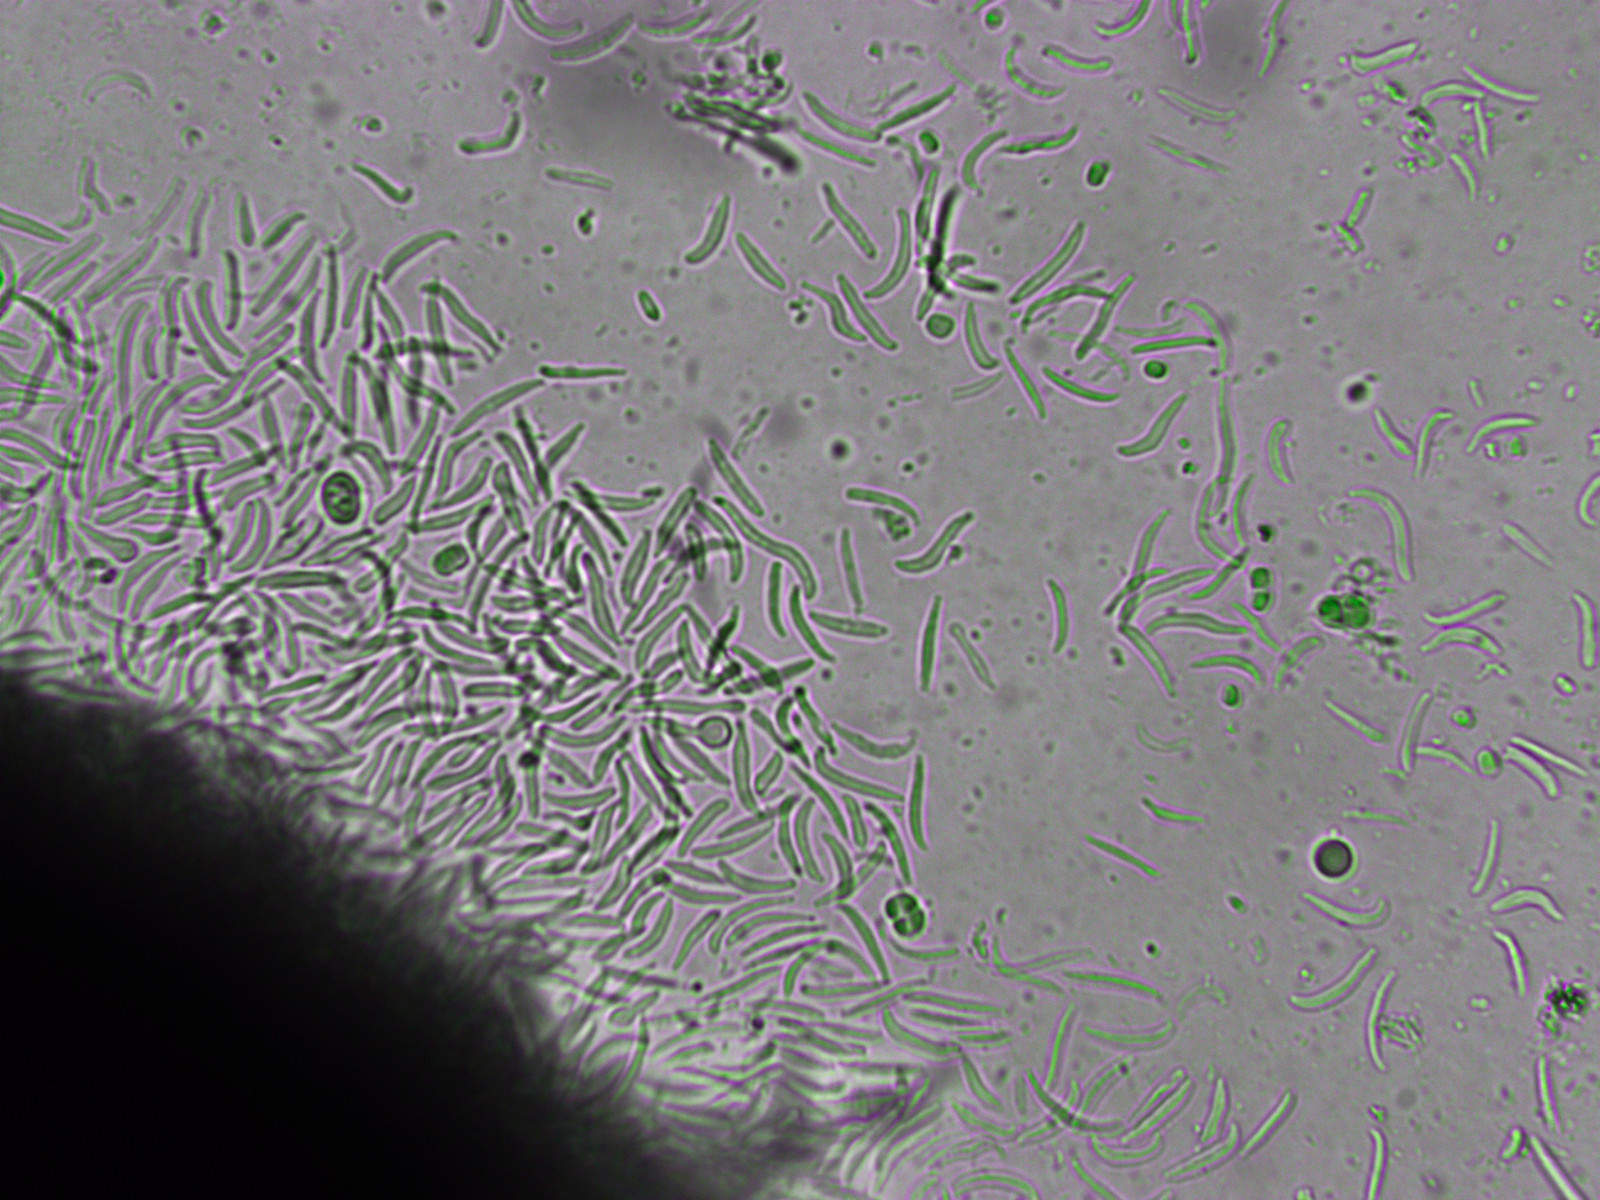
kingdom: Fungi
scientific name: Fungi
